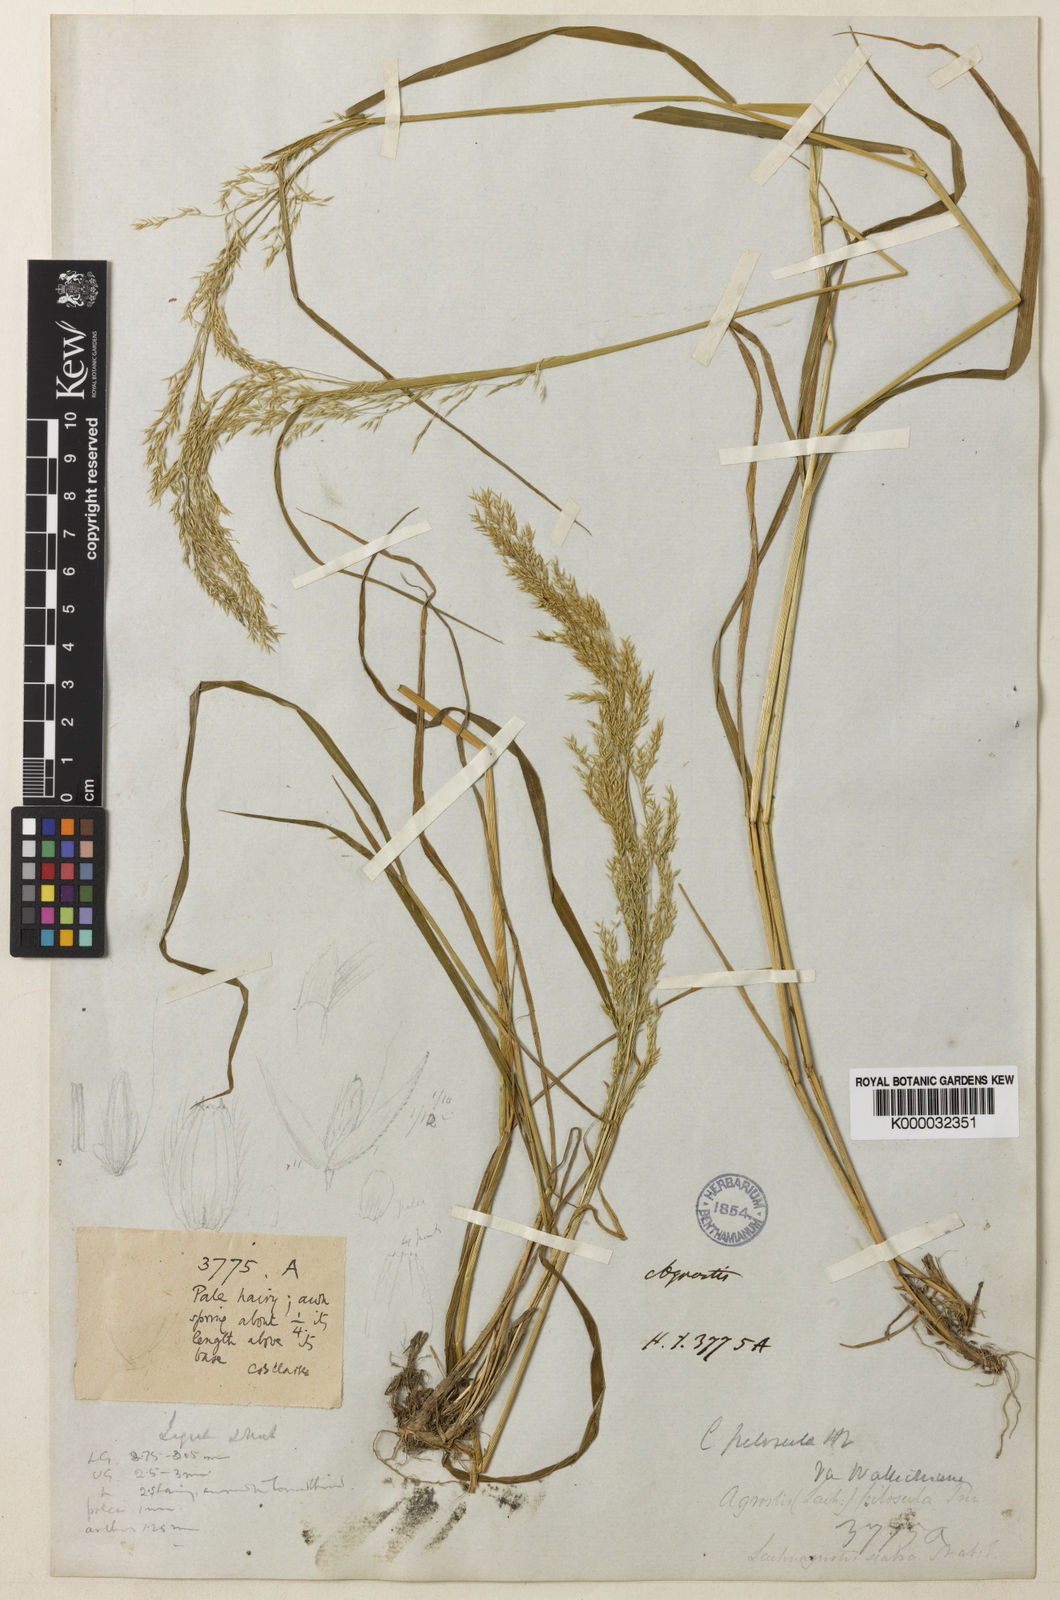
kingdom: Plantae
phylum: Tracheophyta
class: Liliopsida
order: Poales
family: Poaceae
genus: Agrostis
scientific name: Agrostis pilosula
